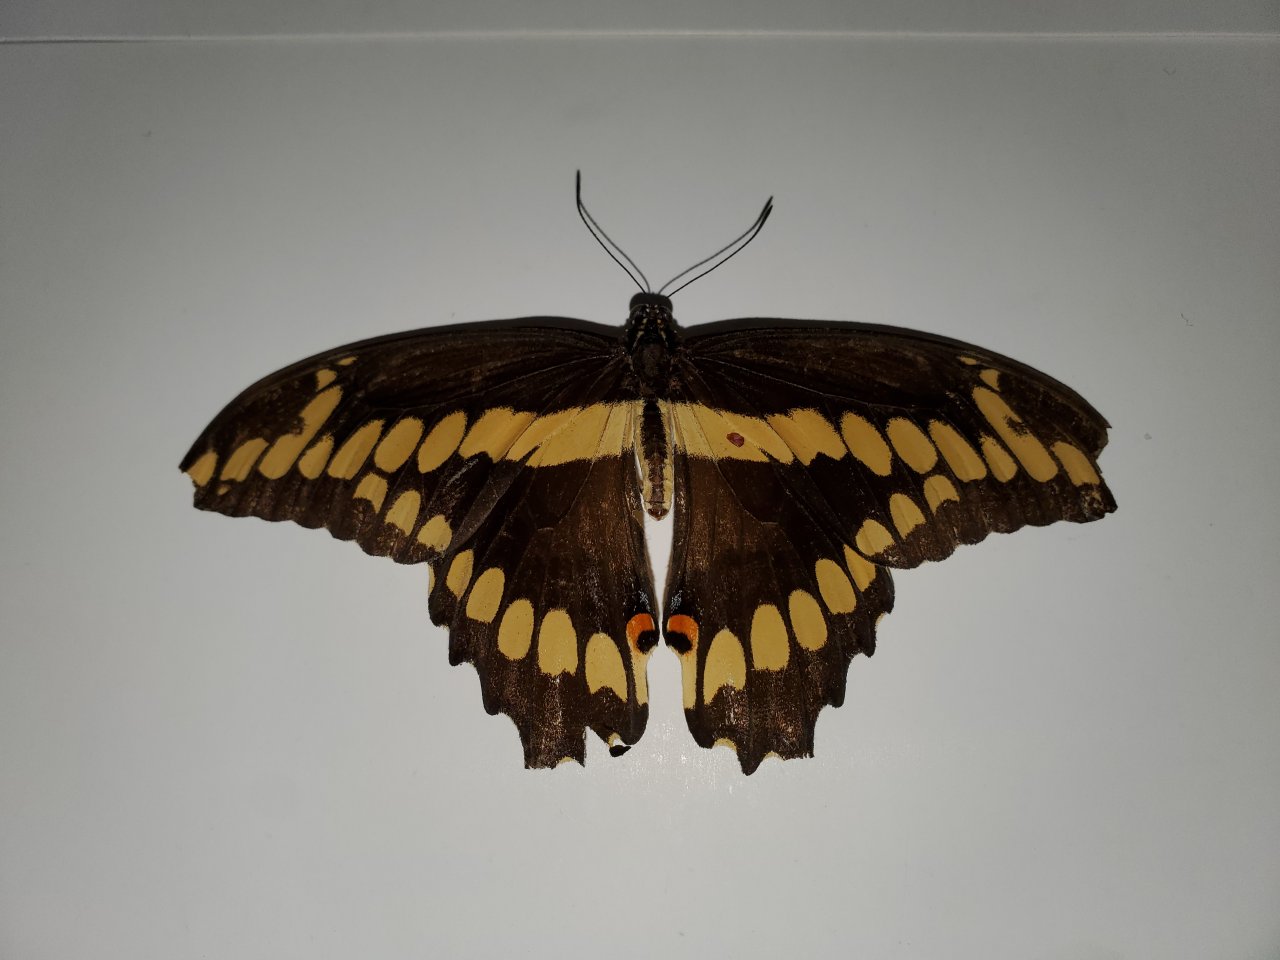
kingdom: Animalia
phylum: Arthropoda
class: Insecta
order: Lepidoptera
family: Papilionidae
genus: Papilio
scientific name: Papilio cresphontes
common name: Eastern Giant Swallowtail
